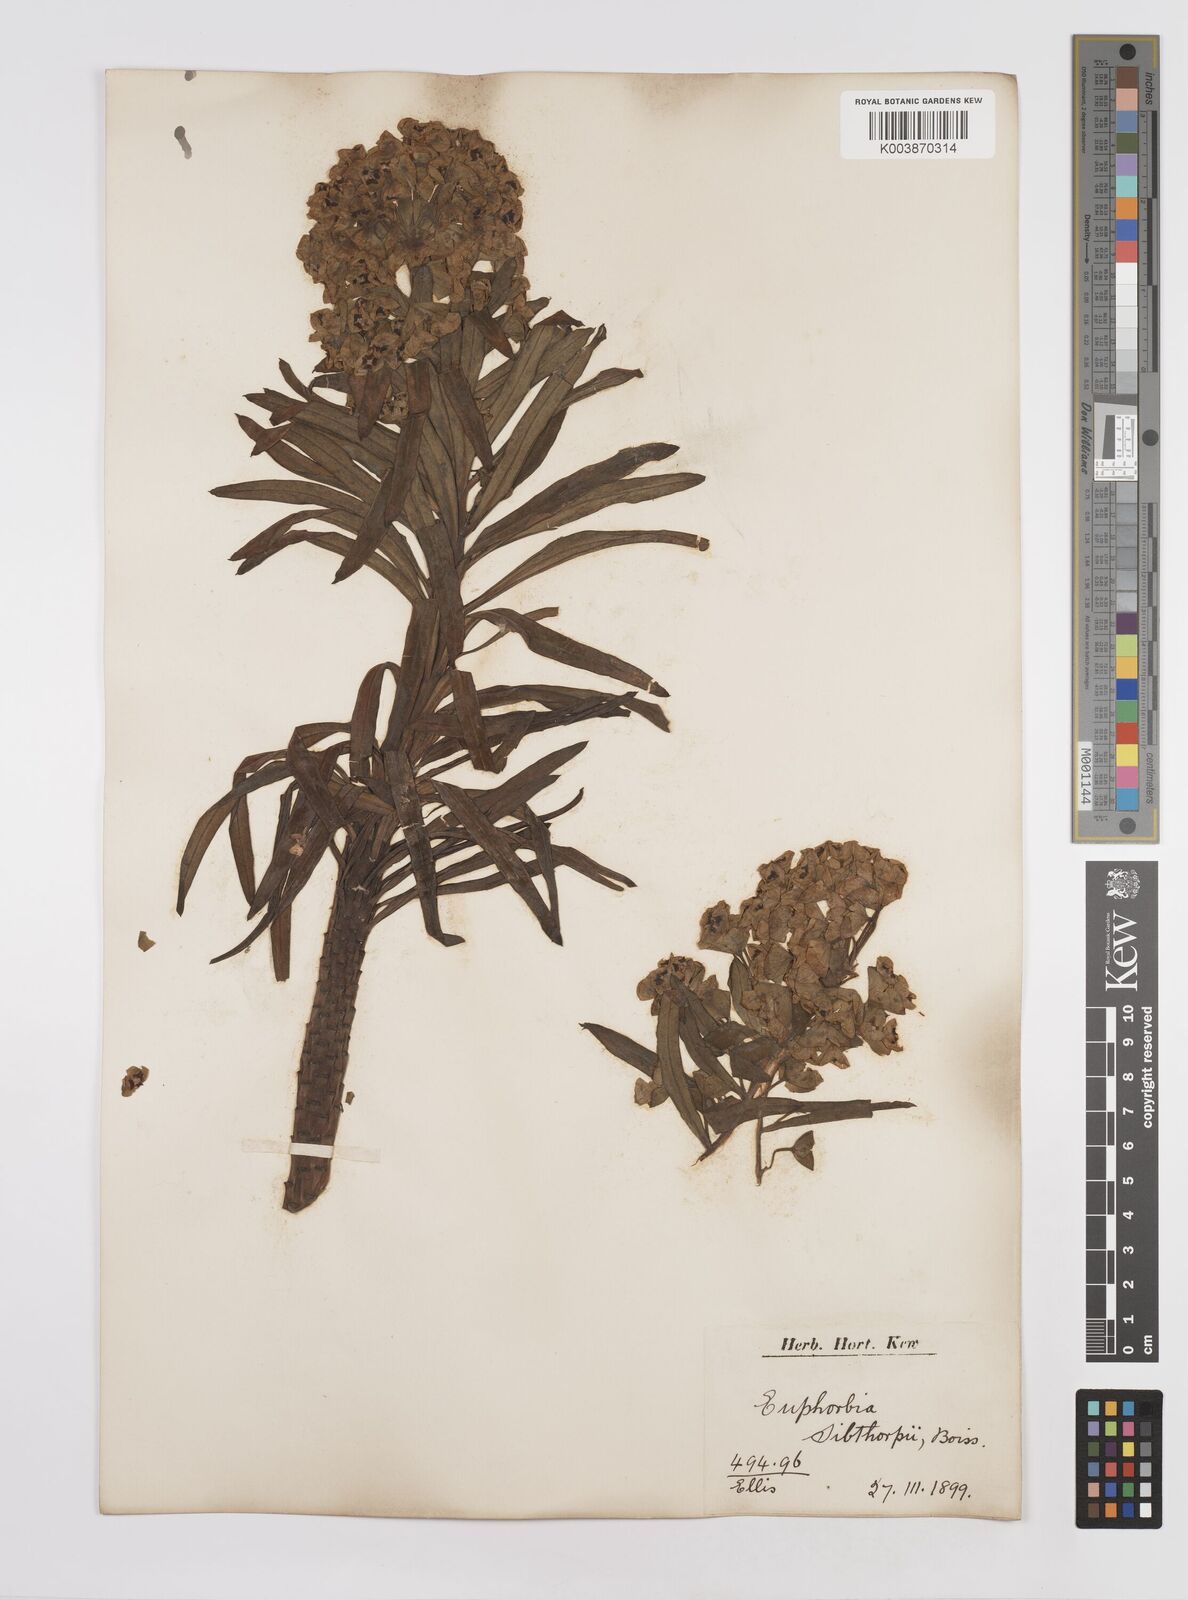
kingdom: Plantae
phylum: Tracheophyta
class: Magnoliopsida
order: Malpighiales
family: Euphorbiaceae
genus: Euphorbia
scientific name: Euphorbia characias
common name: Mediterranean spurge
